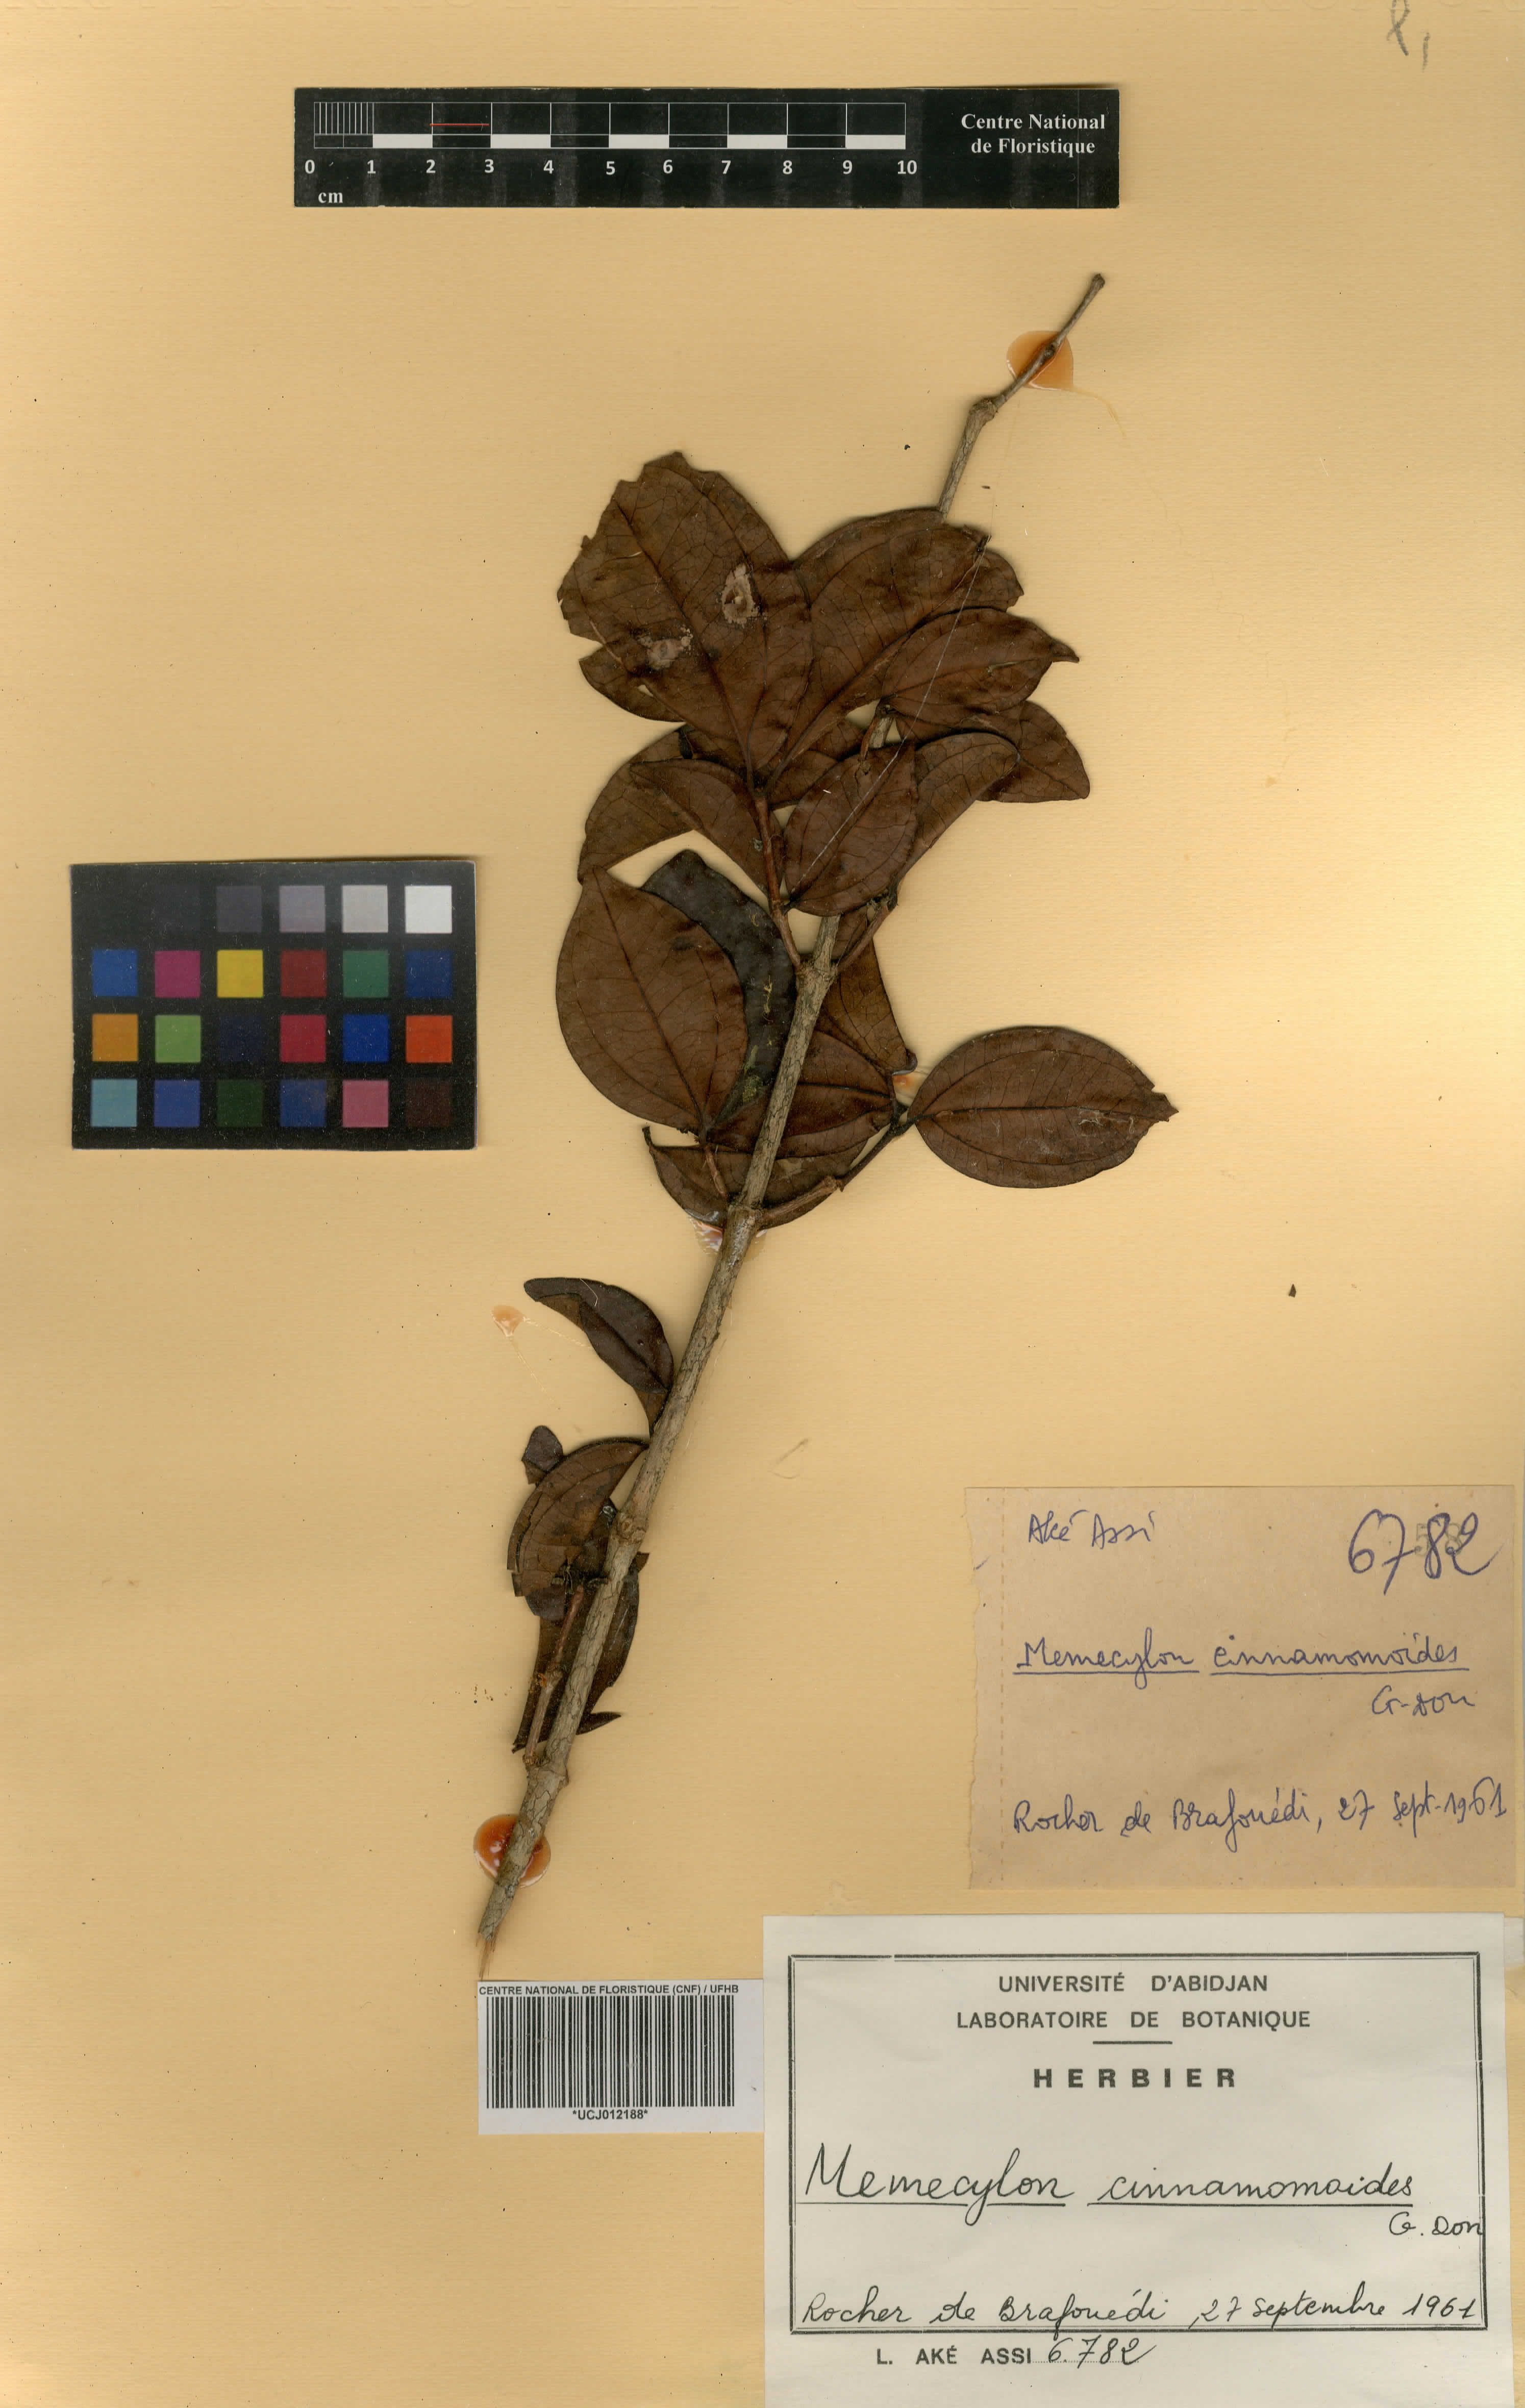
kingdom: Plantae
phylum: Tracheophyta
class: Magnoliopsida
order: Myrtales
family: Melastomataceae
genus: Warneckea
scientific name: Warneckea cinnamomoides
